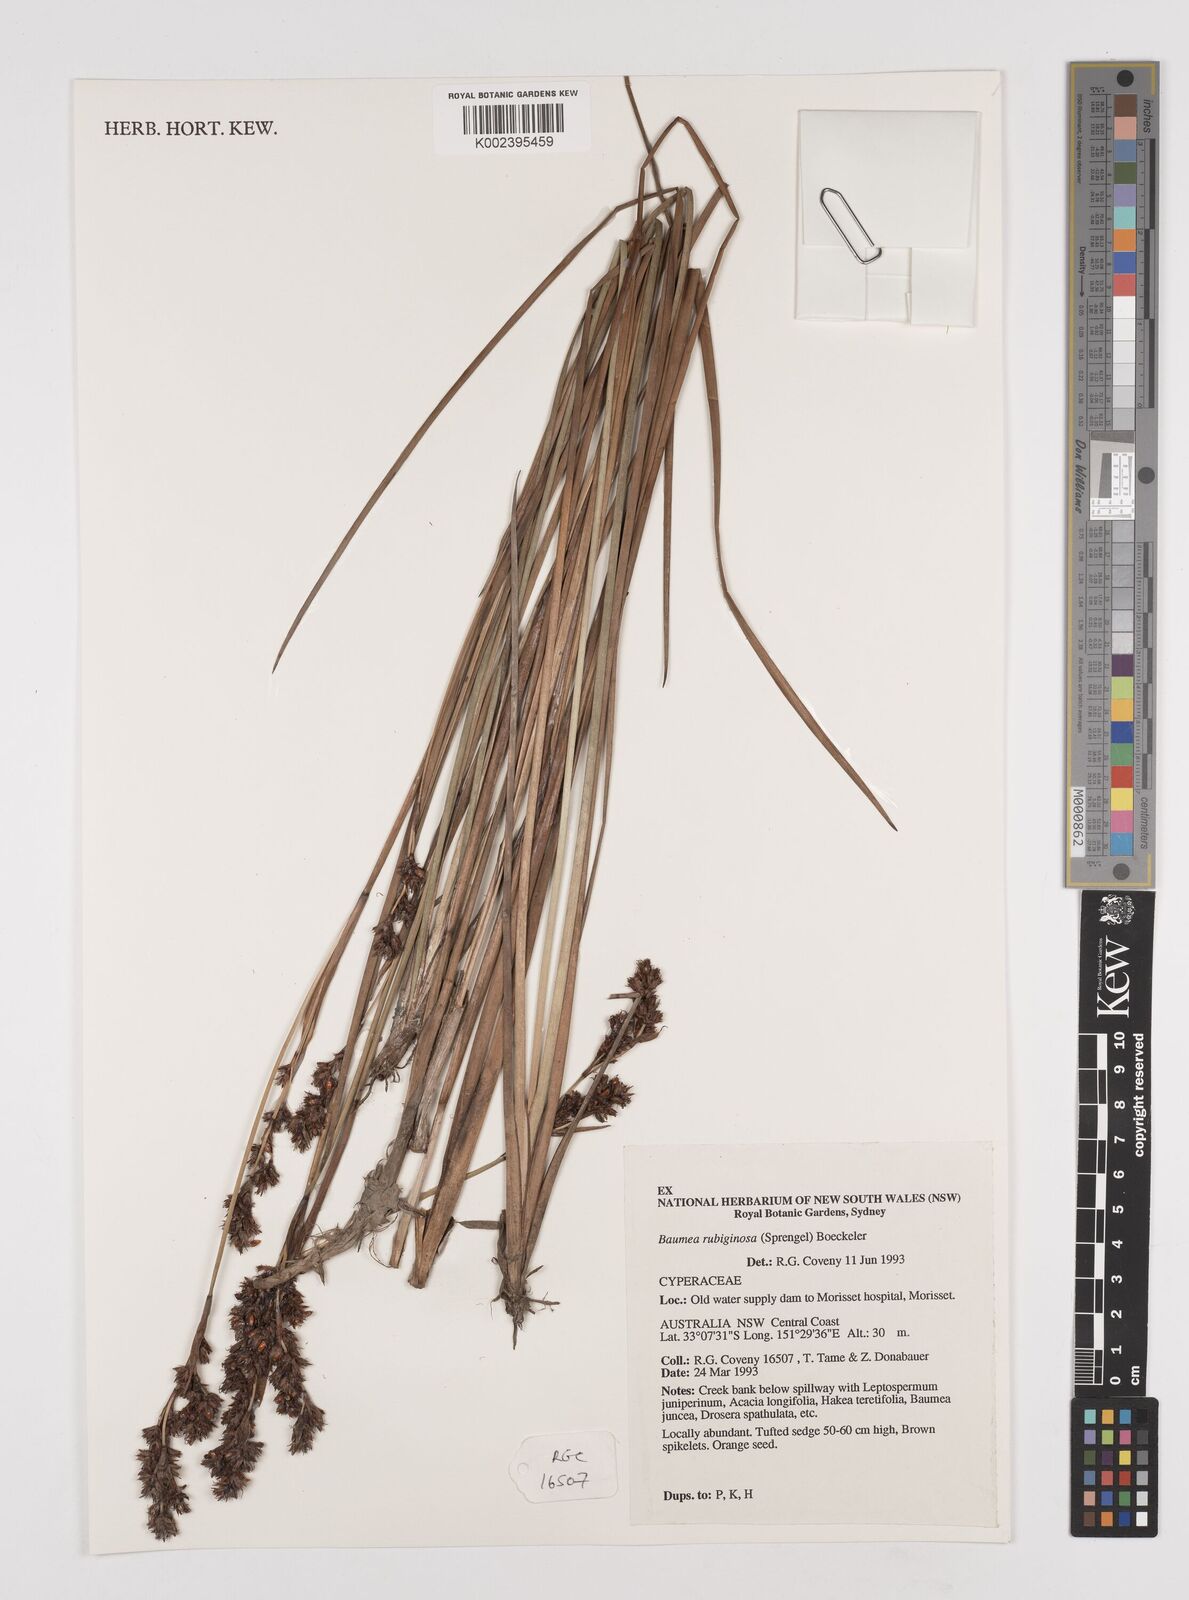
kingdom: Plantae
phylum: Tracheophyta
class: Liliopsida
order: Poales
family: Cyperaceae
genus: Machaerina
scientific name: Machaerina rubiginosa
